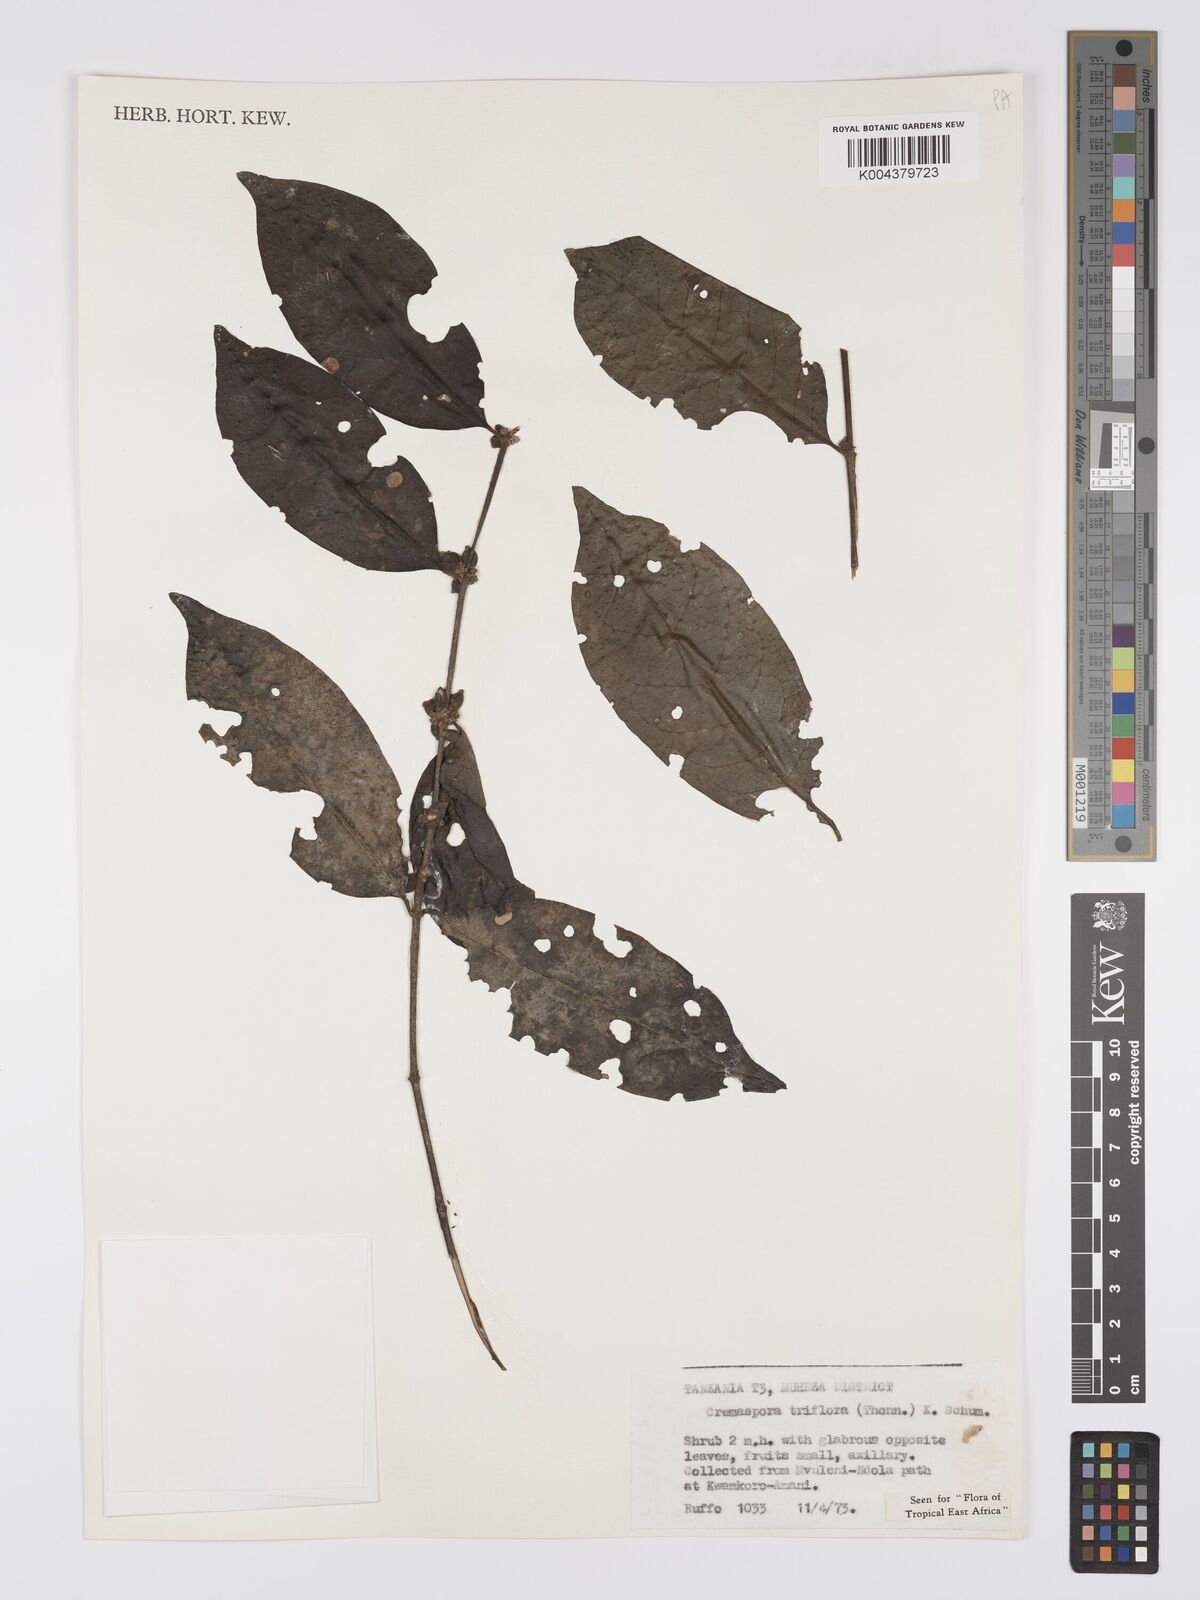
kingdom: Plantae
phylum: Tracheophyta
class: Magnoliopsida
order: Gentianales
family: Rubiaceae
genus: Cremaspora
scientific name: Cremaspora triflora
